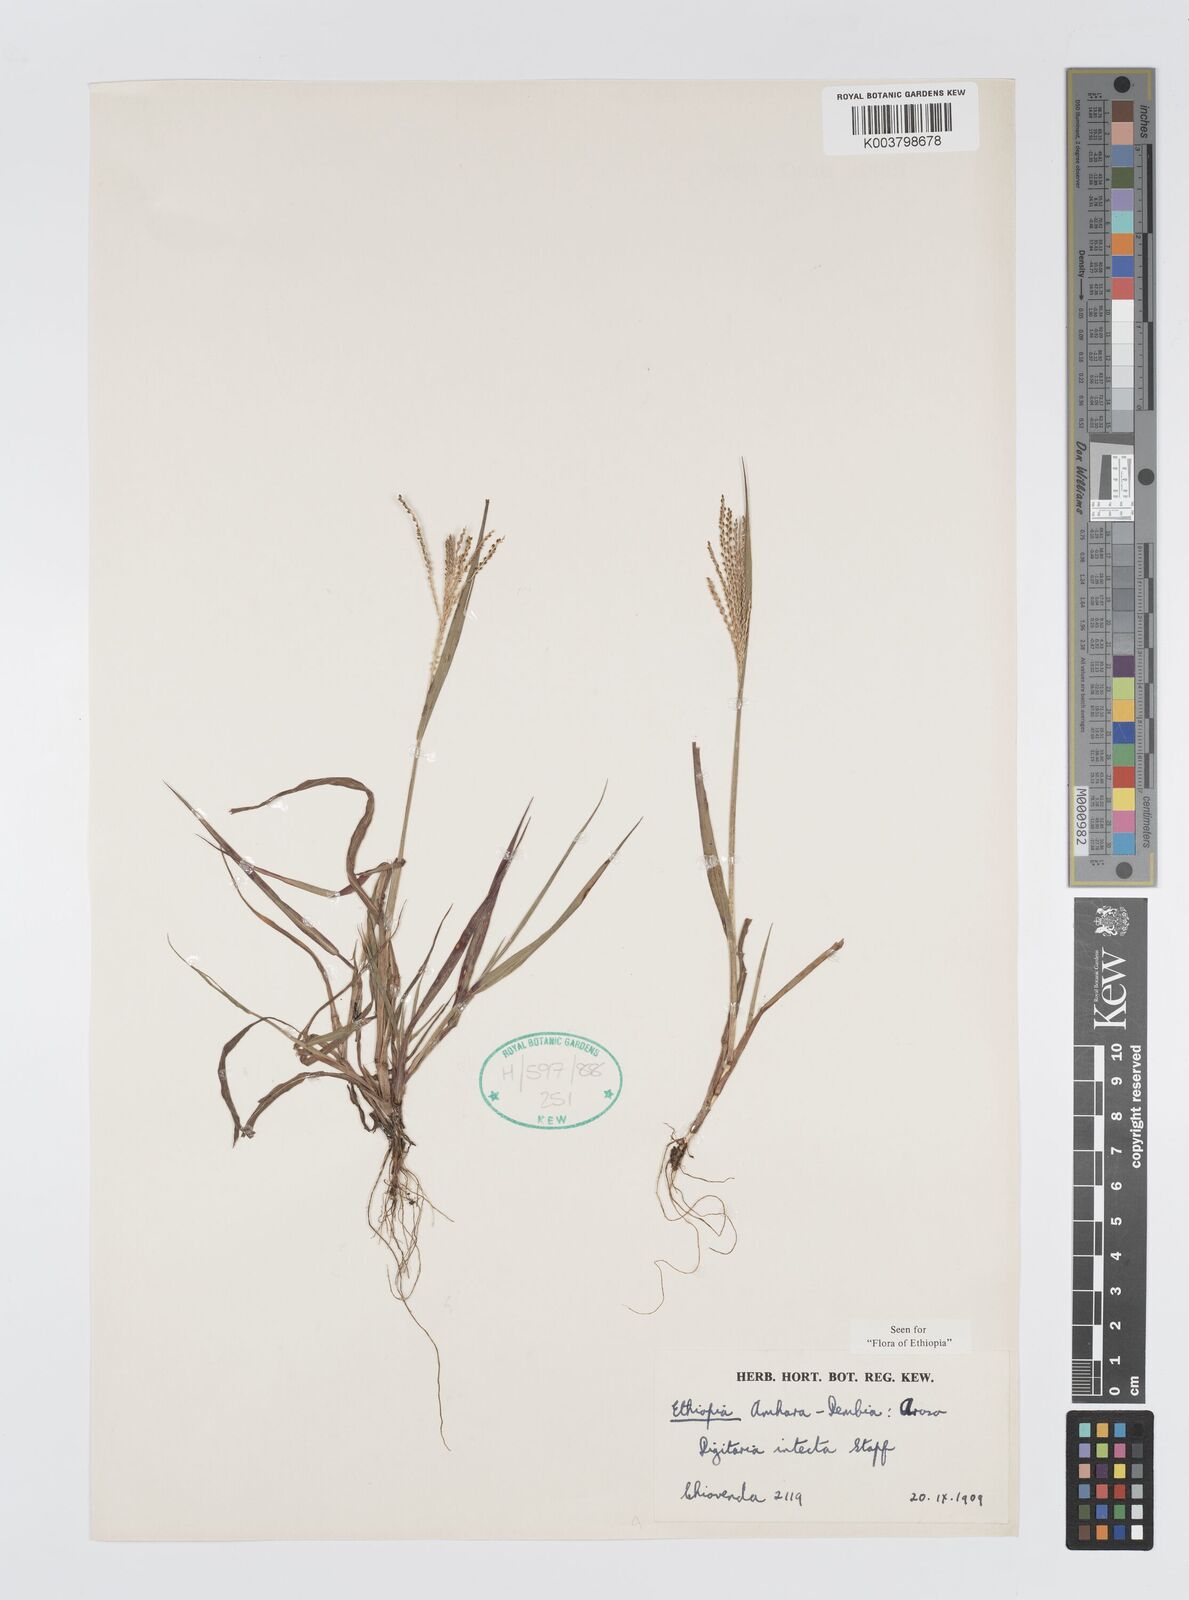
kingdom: Plantae
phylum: Tracheophyta
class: Liliopsida
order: Poales
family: Poaceae
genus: Digitaria
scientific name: Digitaria intecta
